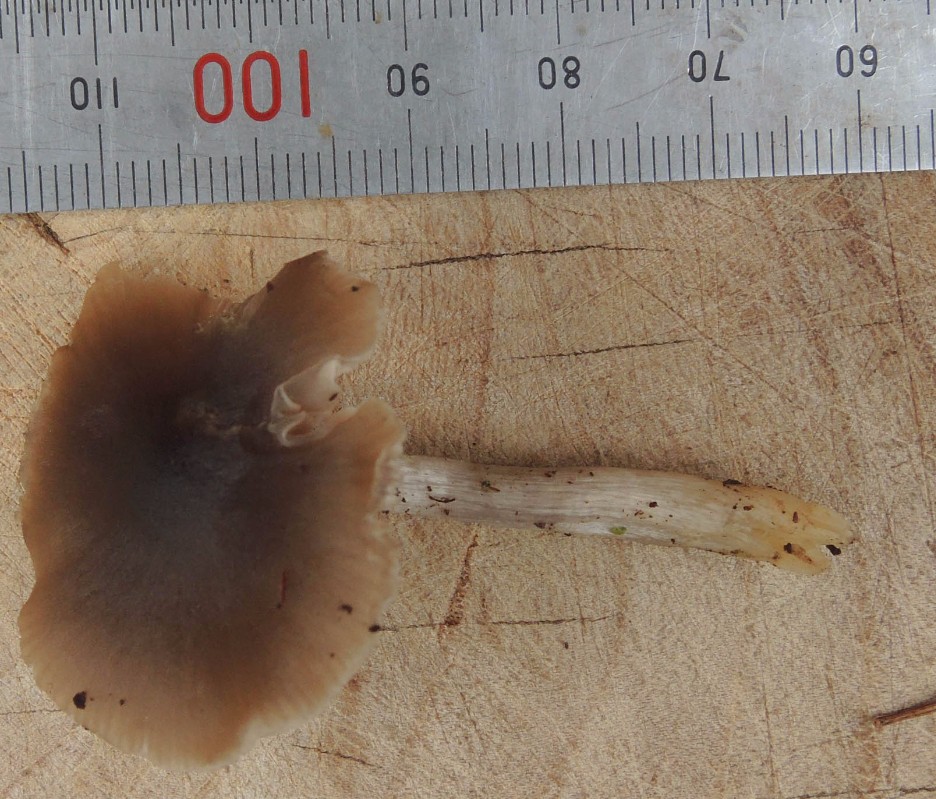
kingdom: Fungi
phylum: Basidiomycota
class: Agaricomycetes
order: Agaricales
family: Entolomataceae
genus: Entocybe
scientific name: Entocybe turbida
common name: plantage-rødblad
